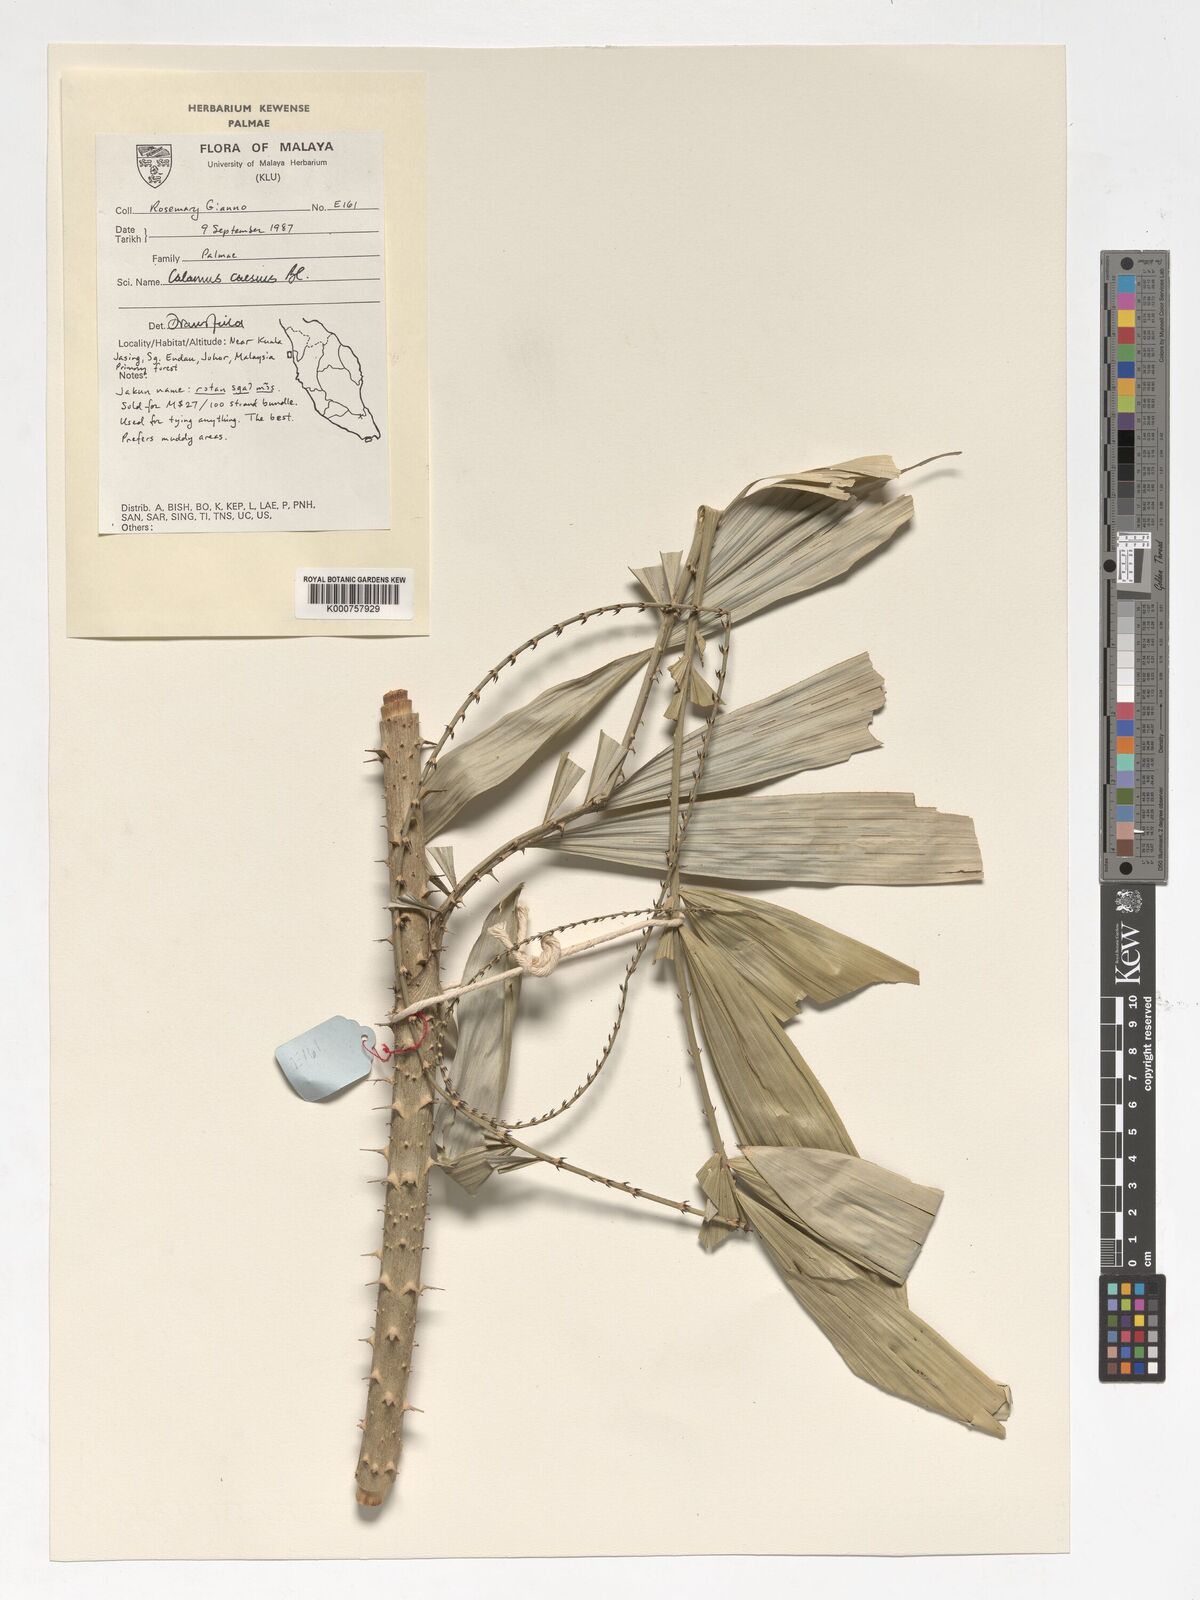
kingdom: Plantae
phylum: Tracheophyta
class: Liliopsida
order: Arecales
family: Arecaceae
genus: Calamus
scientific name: Calamus caesius
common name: Rattan palm
